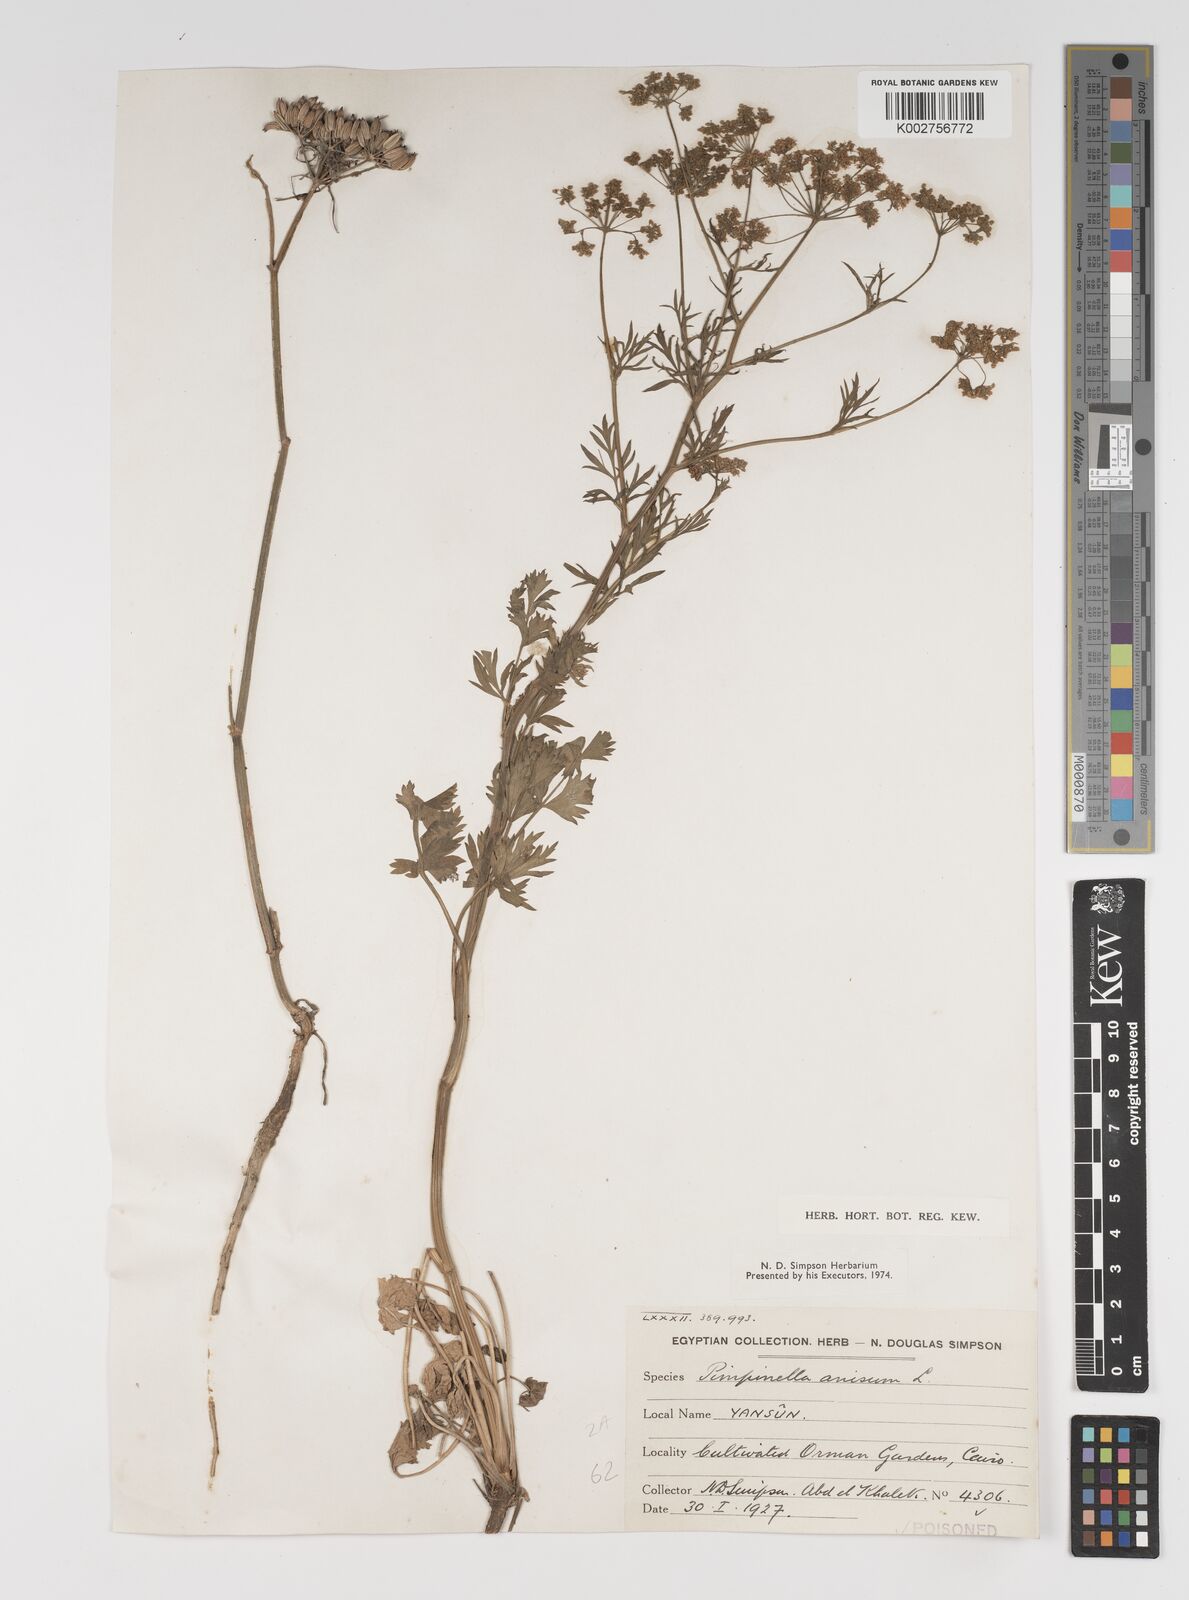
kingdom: Plantae
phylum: Tracheophyta
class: Magnoliopsida
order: Apiales
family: Apiaceae
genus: Pimpinella
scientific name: Pimpinella anisum
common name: Anise burnet saxifrage
